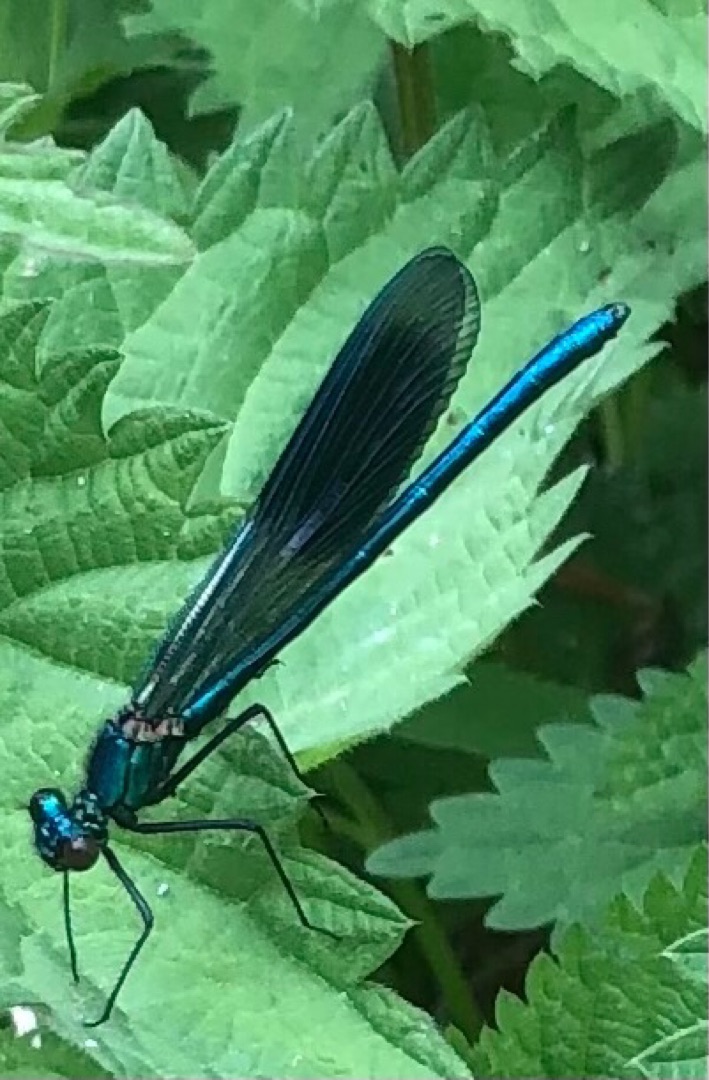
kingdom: Animalia
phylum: Arthropoda
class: Insecta
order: Odonata
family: Calopterygidae
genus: Calopteryx
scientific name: Calopteryx splendens
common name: Blåbåndet pragtvandnymfe
